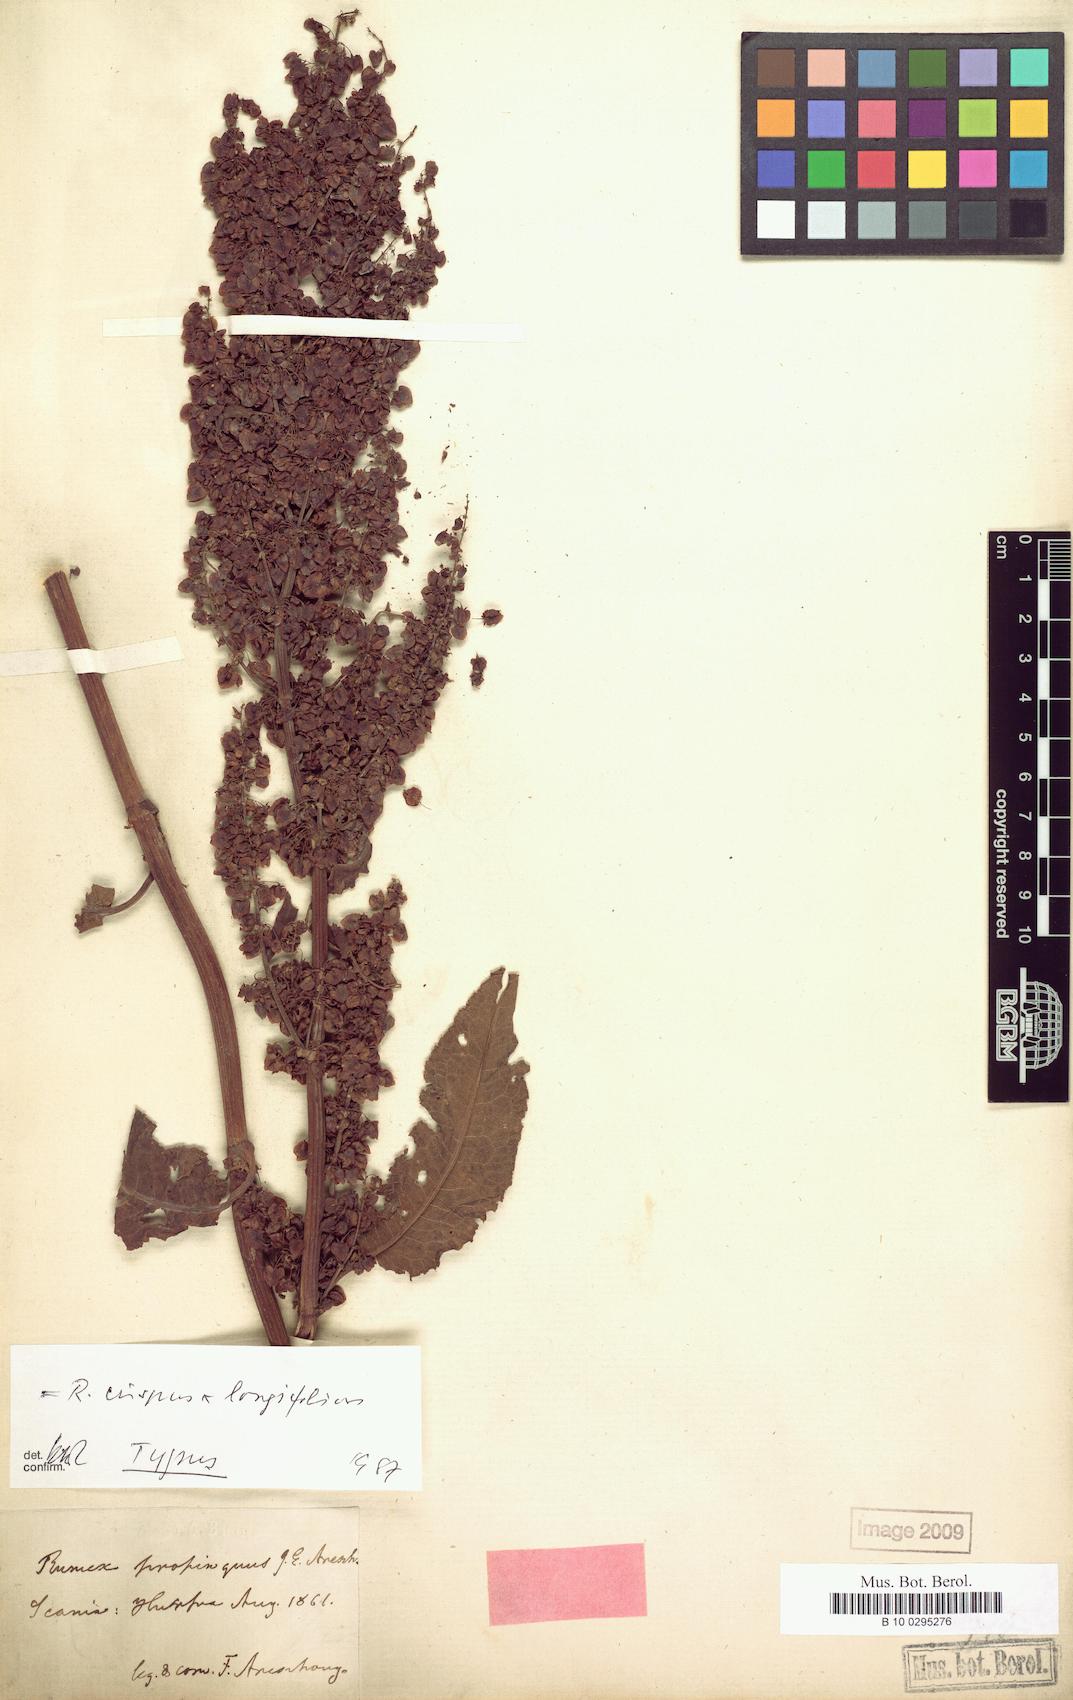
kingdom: Plantae
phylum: Tracheophyta
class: Magnoliopsida
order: Caryophyllales
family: Polygonaceae
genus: Rumex
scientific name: Rumex propinquus
